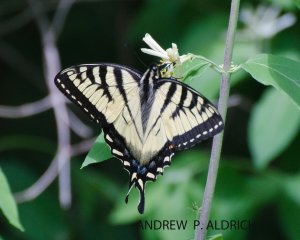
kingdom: Animalia
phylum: Arthropoda
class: Insecta
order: Lepidoptera
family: Papilionidae
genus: Pterourus
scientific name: Pterourus canadensis
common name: Canadian Tiger Swallowtail
